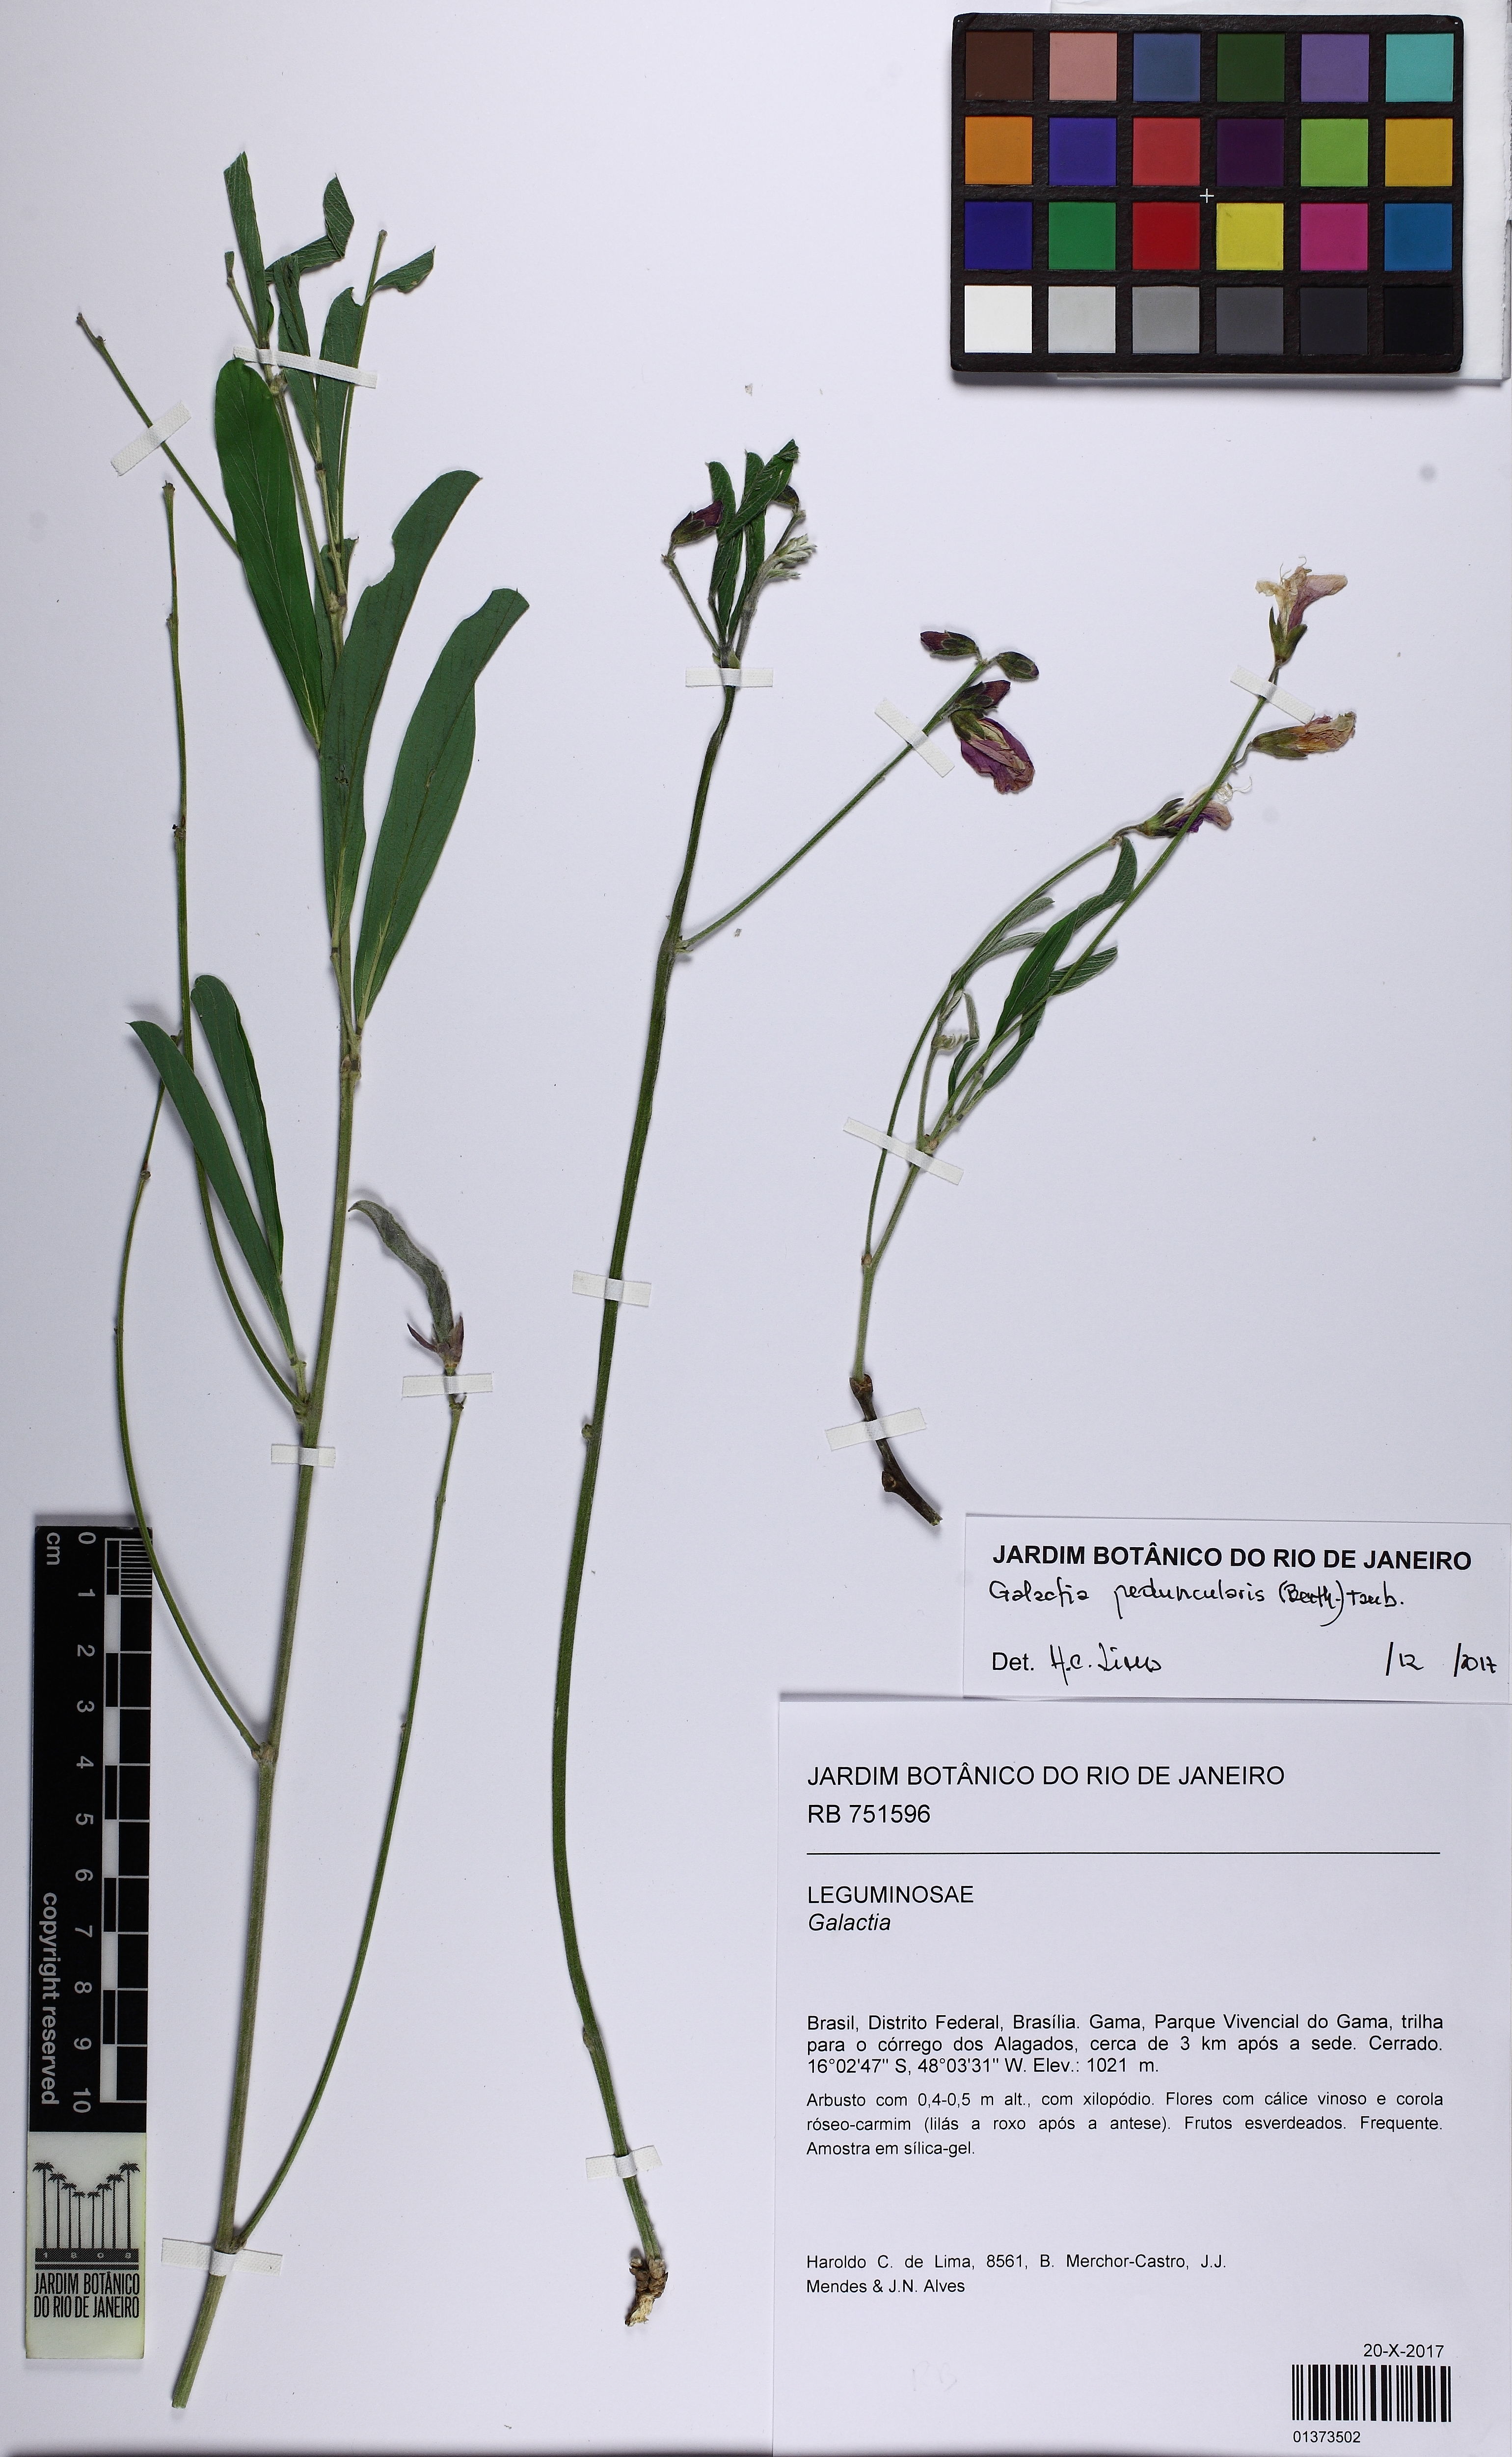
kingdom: Plantae
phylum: Tracheophyta
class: Magnoliopsida
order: Fabales
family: Fabaceae
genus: Cerradicola
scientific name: Cerradicola peduncularis
